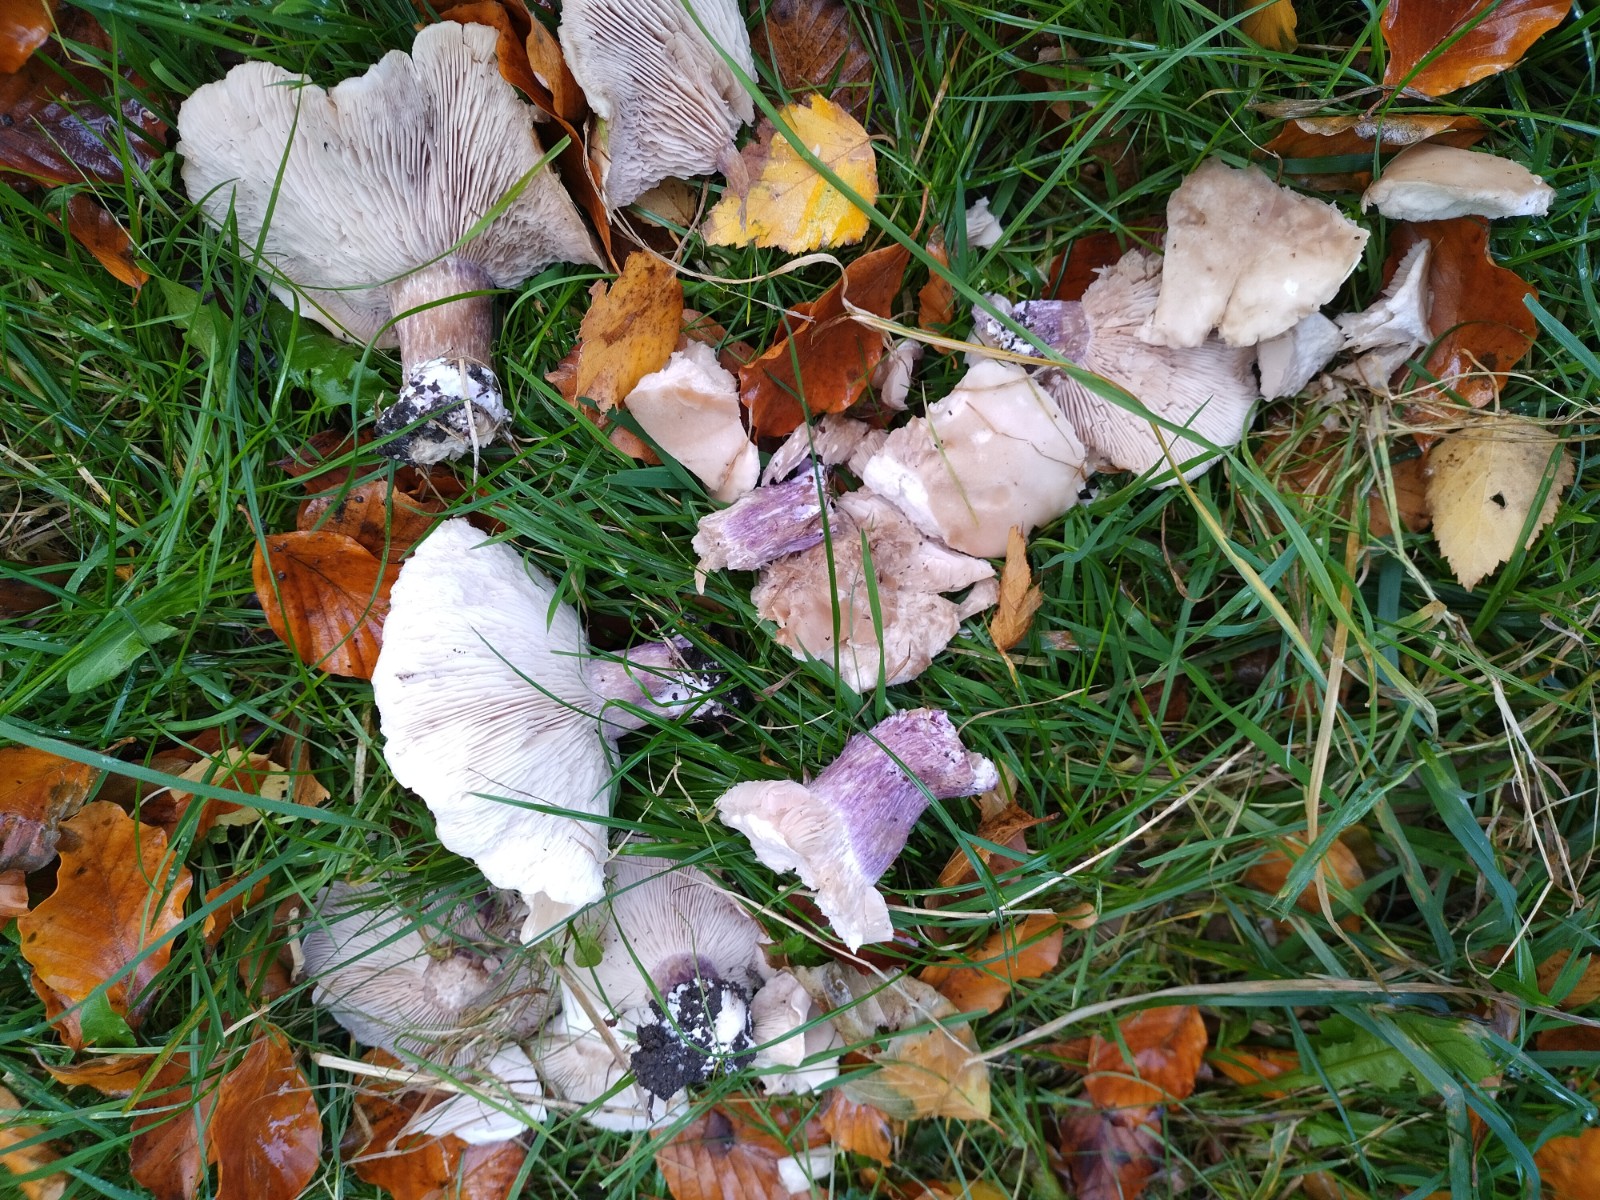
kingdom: Fungi
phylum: Basidiomycota
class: Agaricomycetes
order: Agaricales
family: Tricholomataceae
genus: Lepista
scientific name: Lepista personata
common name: bleg hekseringshat
